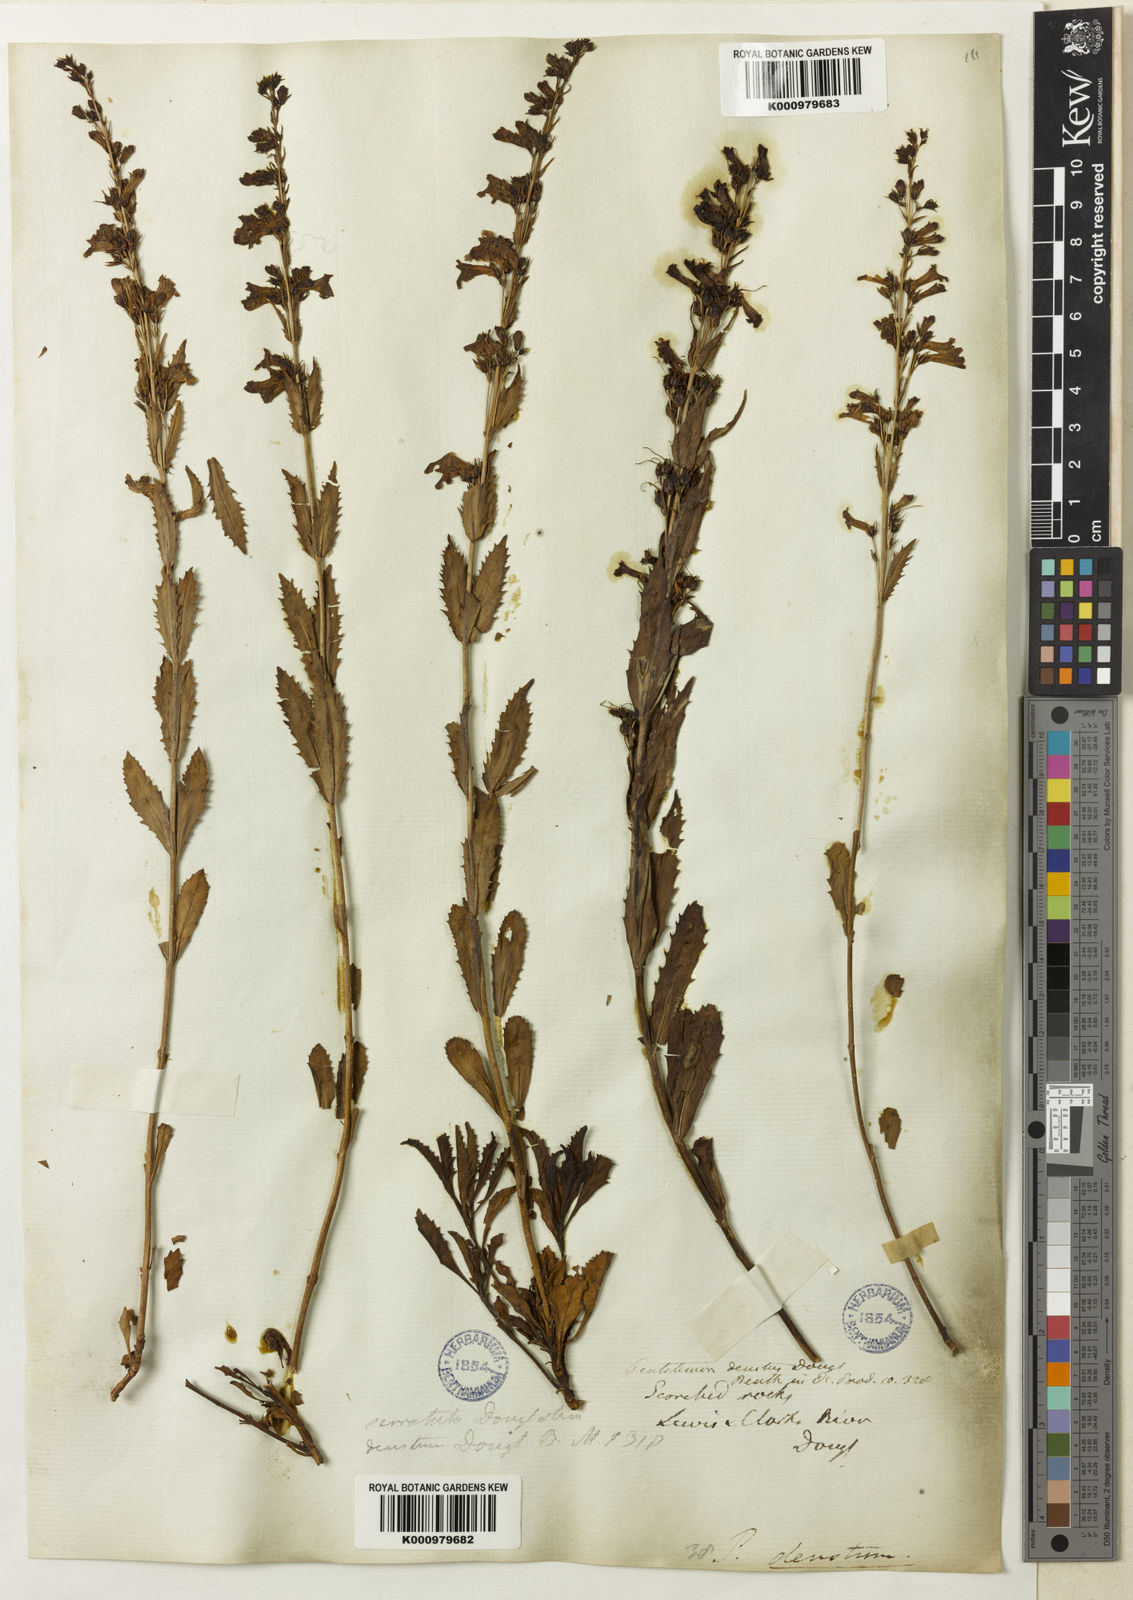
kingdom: Plantae
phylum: Tracheophyta
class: Magnoliopsida
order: Lamiales
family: Plantaginaceae
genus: Penstemon
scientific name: Penstemon
